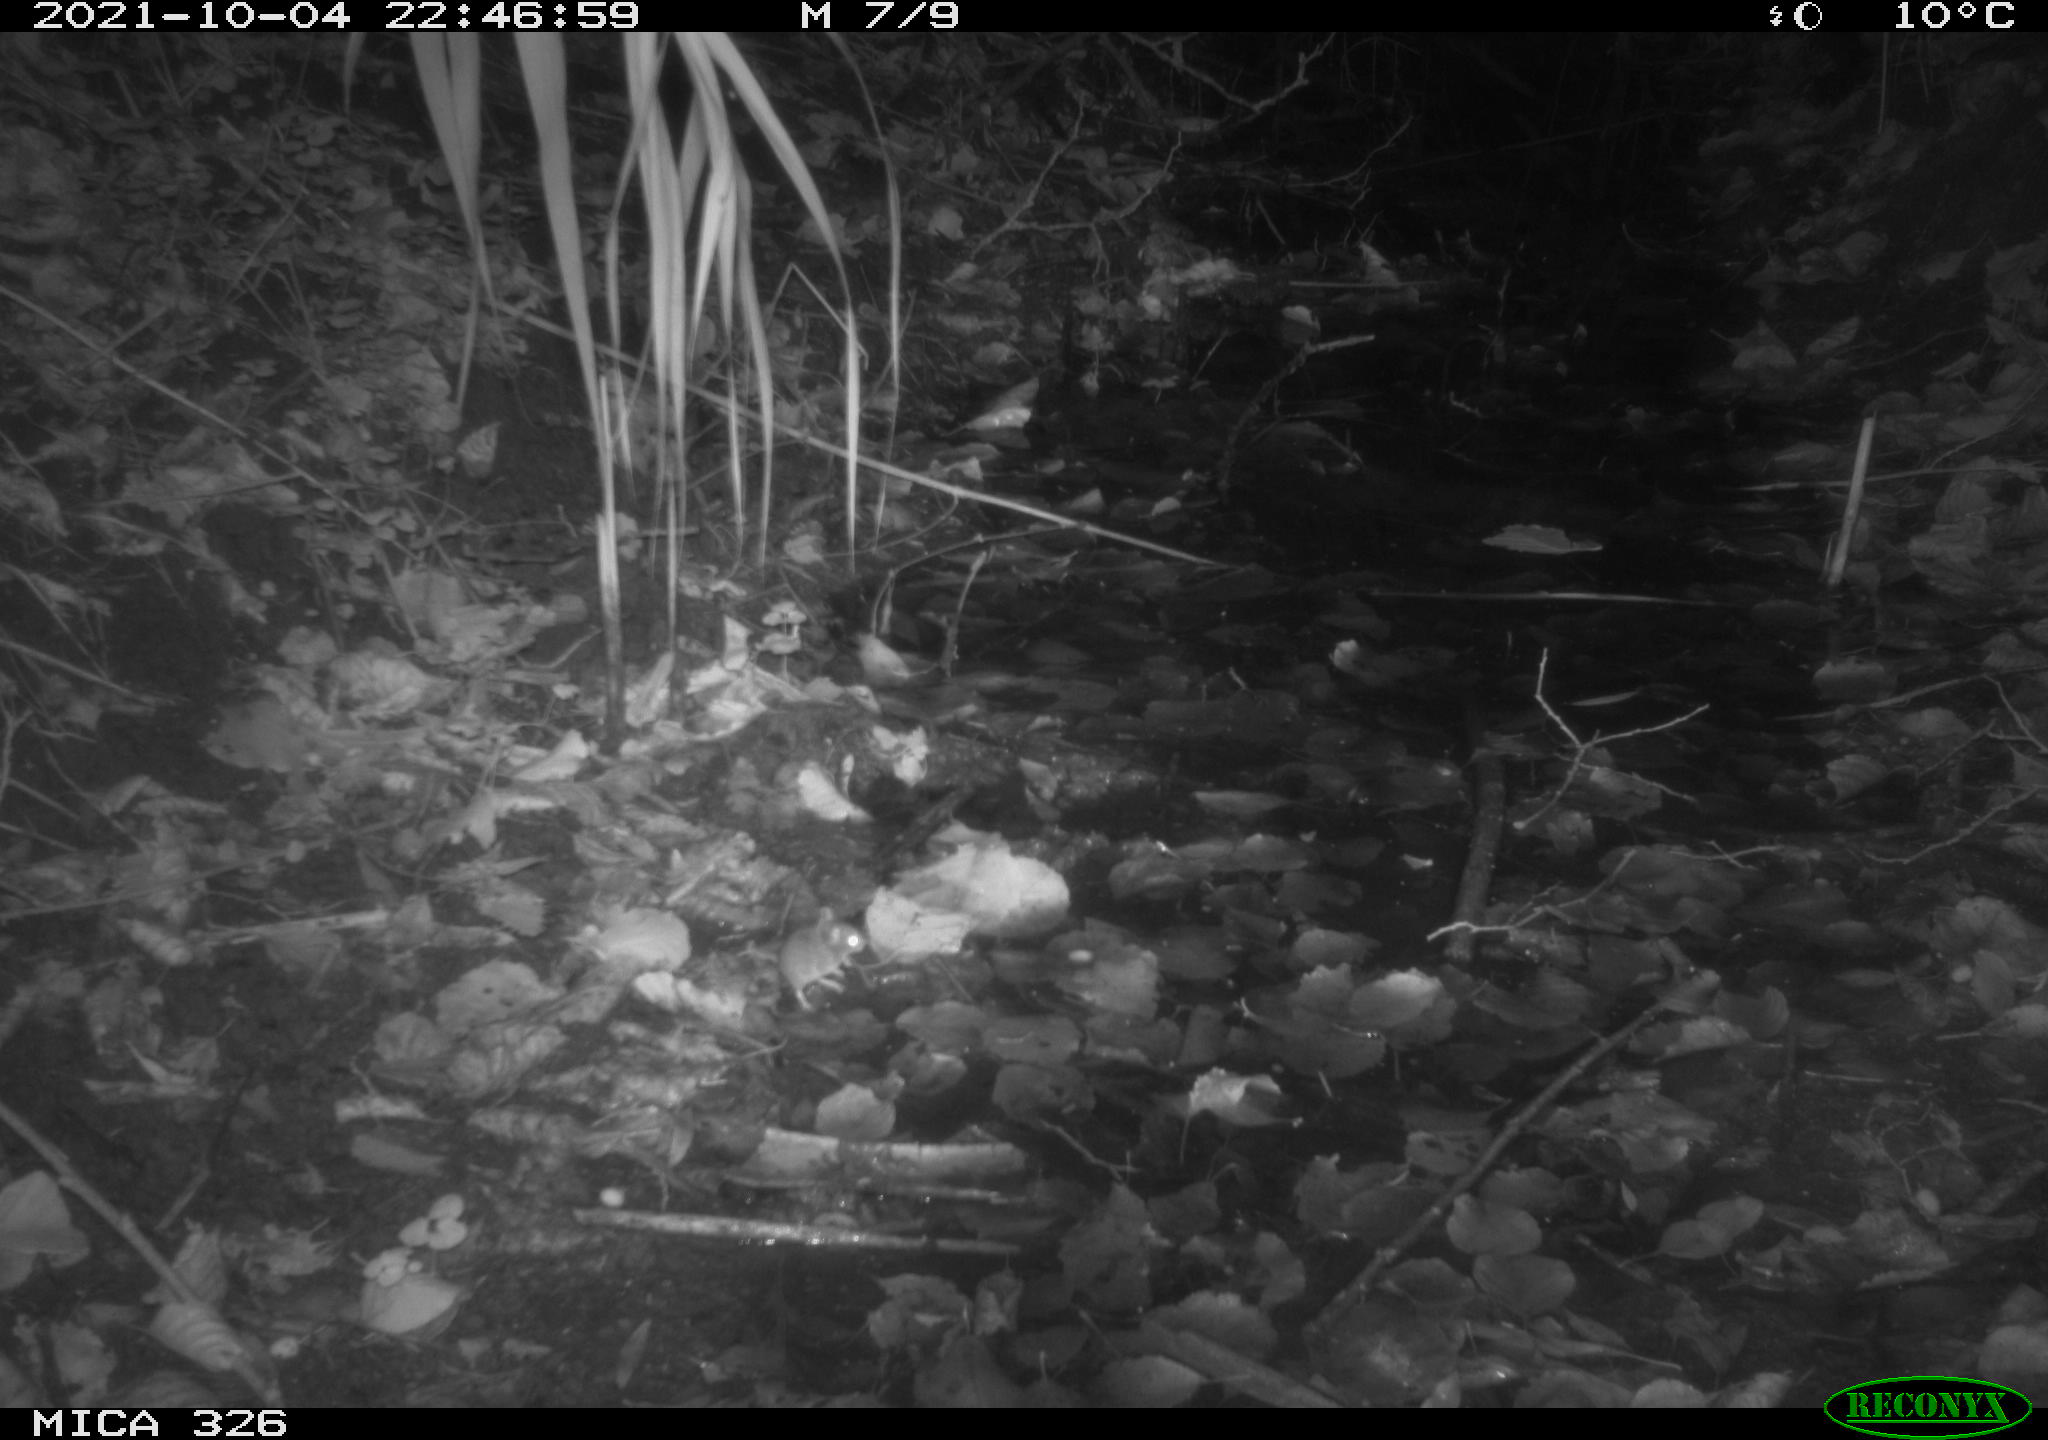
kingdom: Animalia
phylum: Chordata
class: Mammalia
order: Rodentia
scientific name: Rodentia
